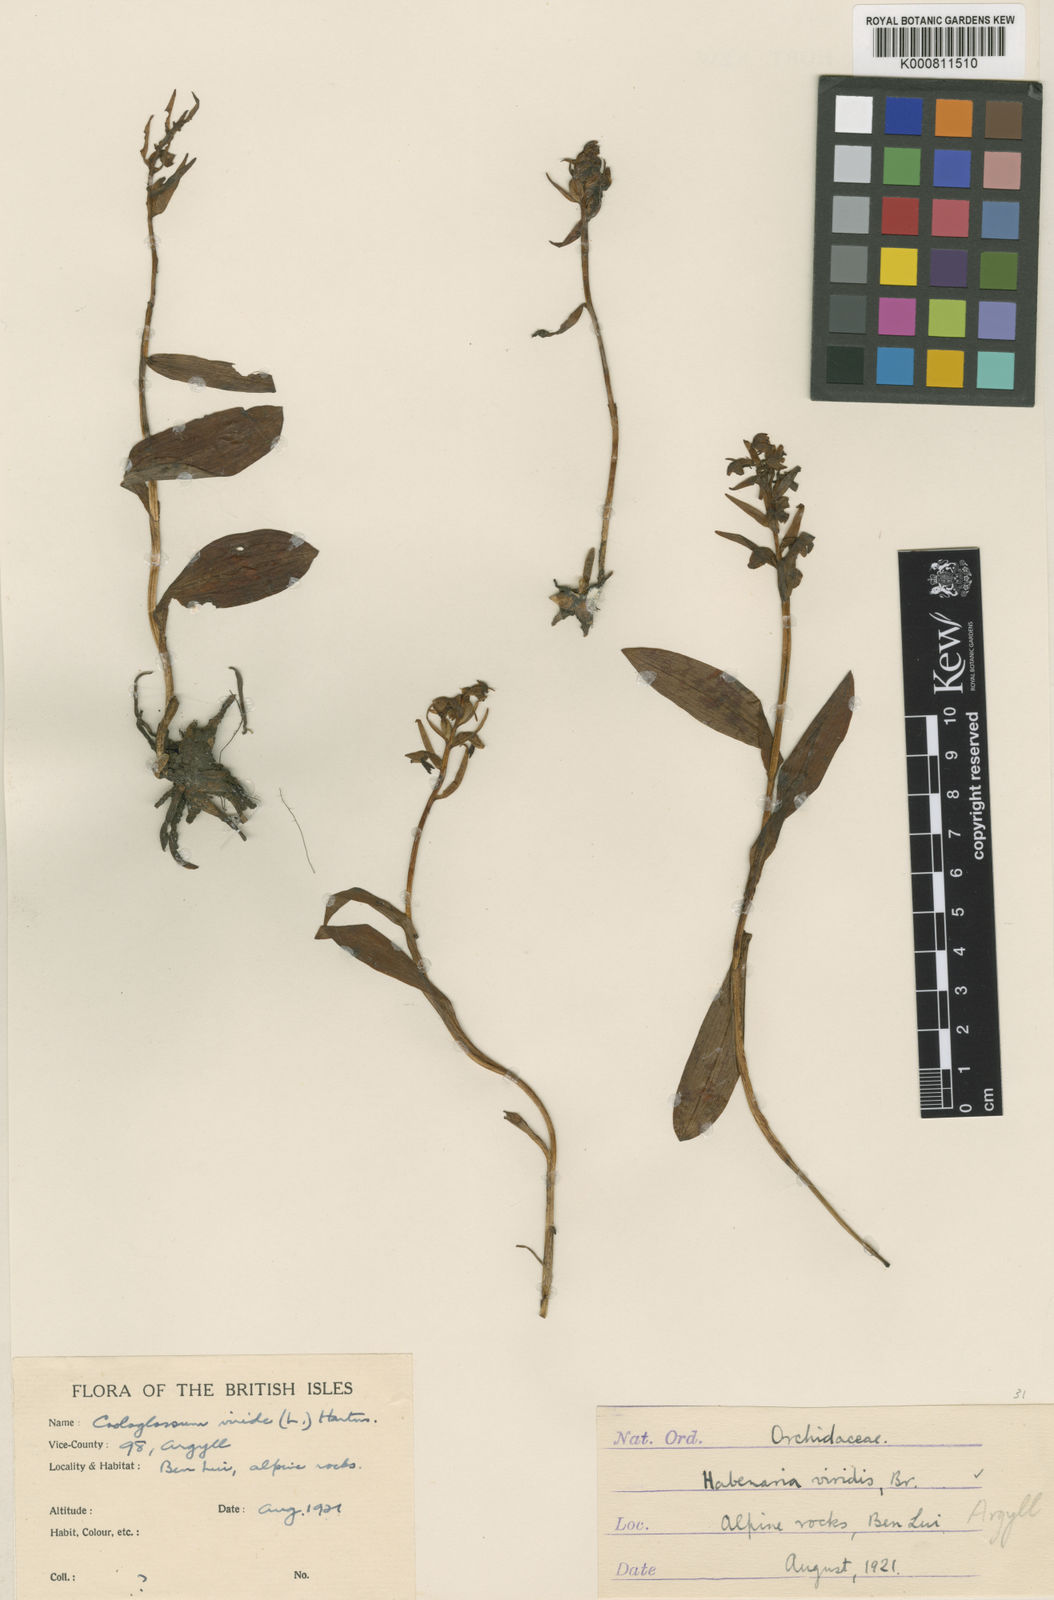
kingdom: Plantae
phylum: Tracheophyta
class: Liliopsida
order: Asparagales
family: Orchidaceae
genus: Dactylorhiza
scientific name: Dactylorhiza viridis
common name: Longbract frog orchid
